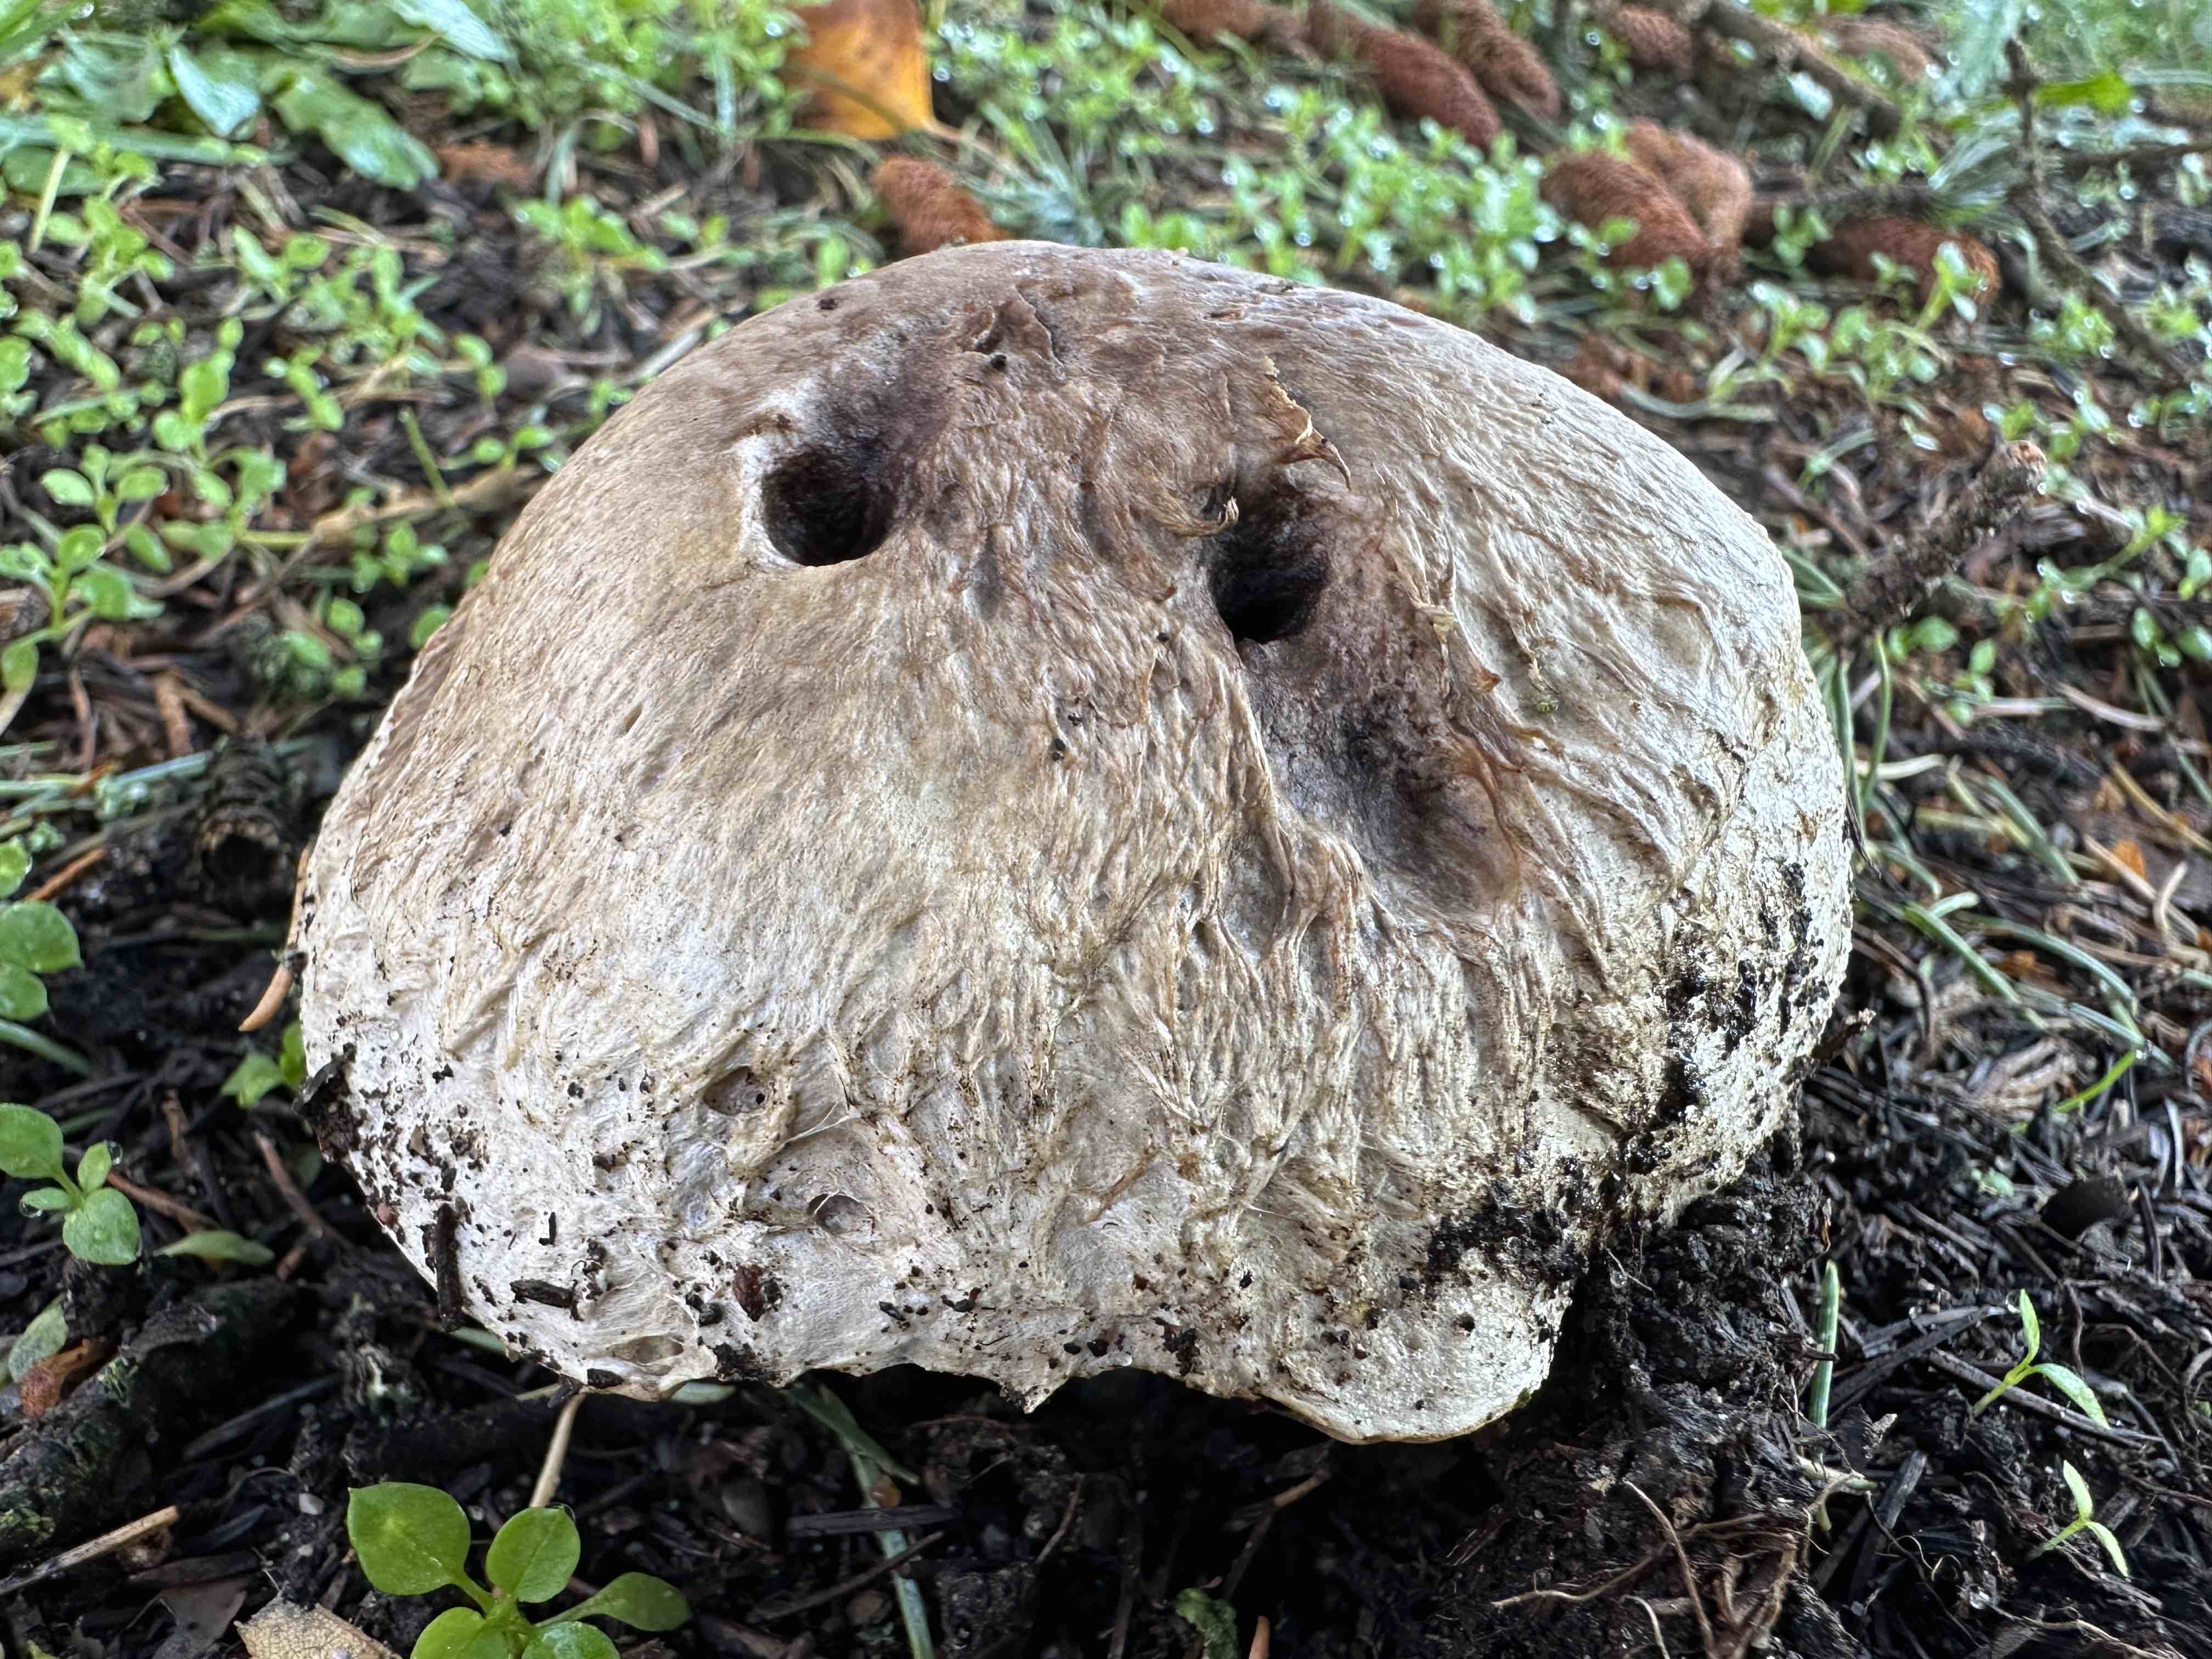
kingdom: Fungi
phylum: Basidiomycota
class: Agaricomycetes
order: Agaricales
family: Agaricaceae
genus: Agaricus
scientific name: Agaricus
